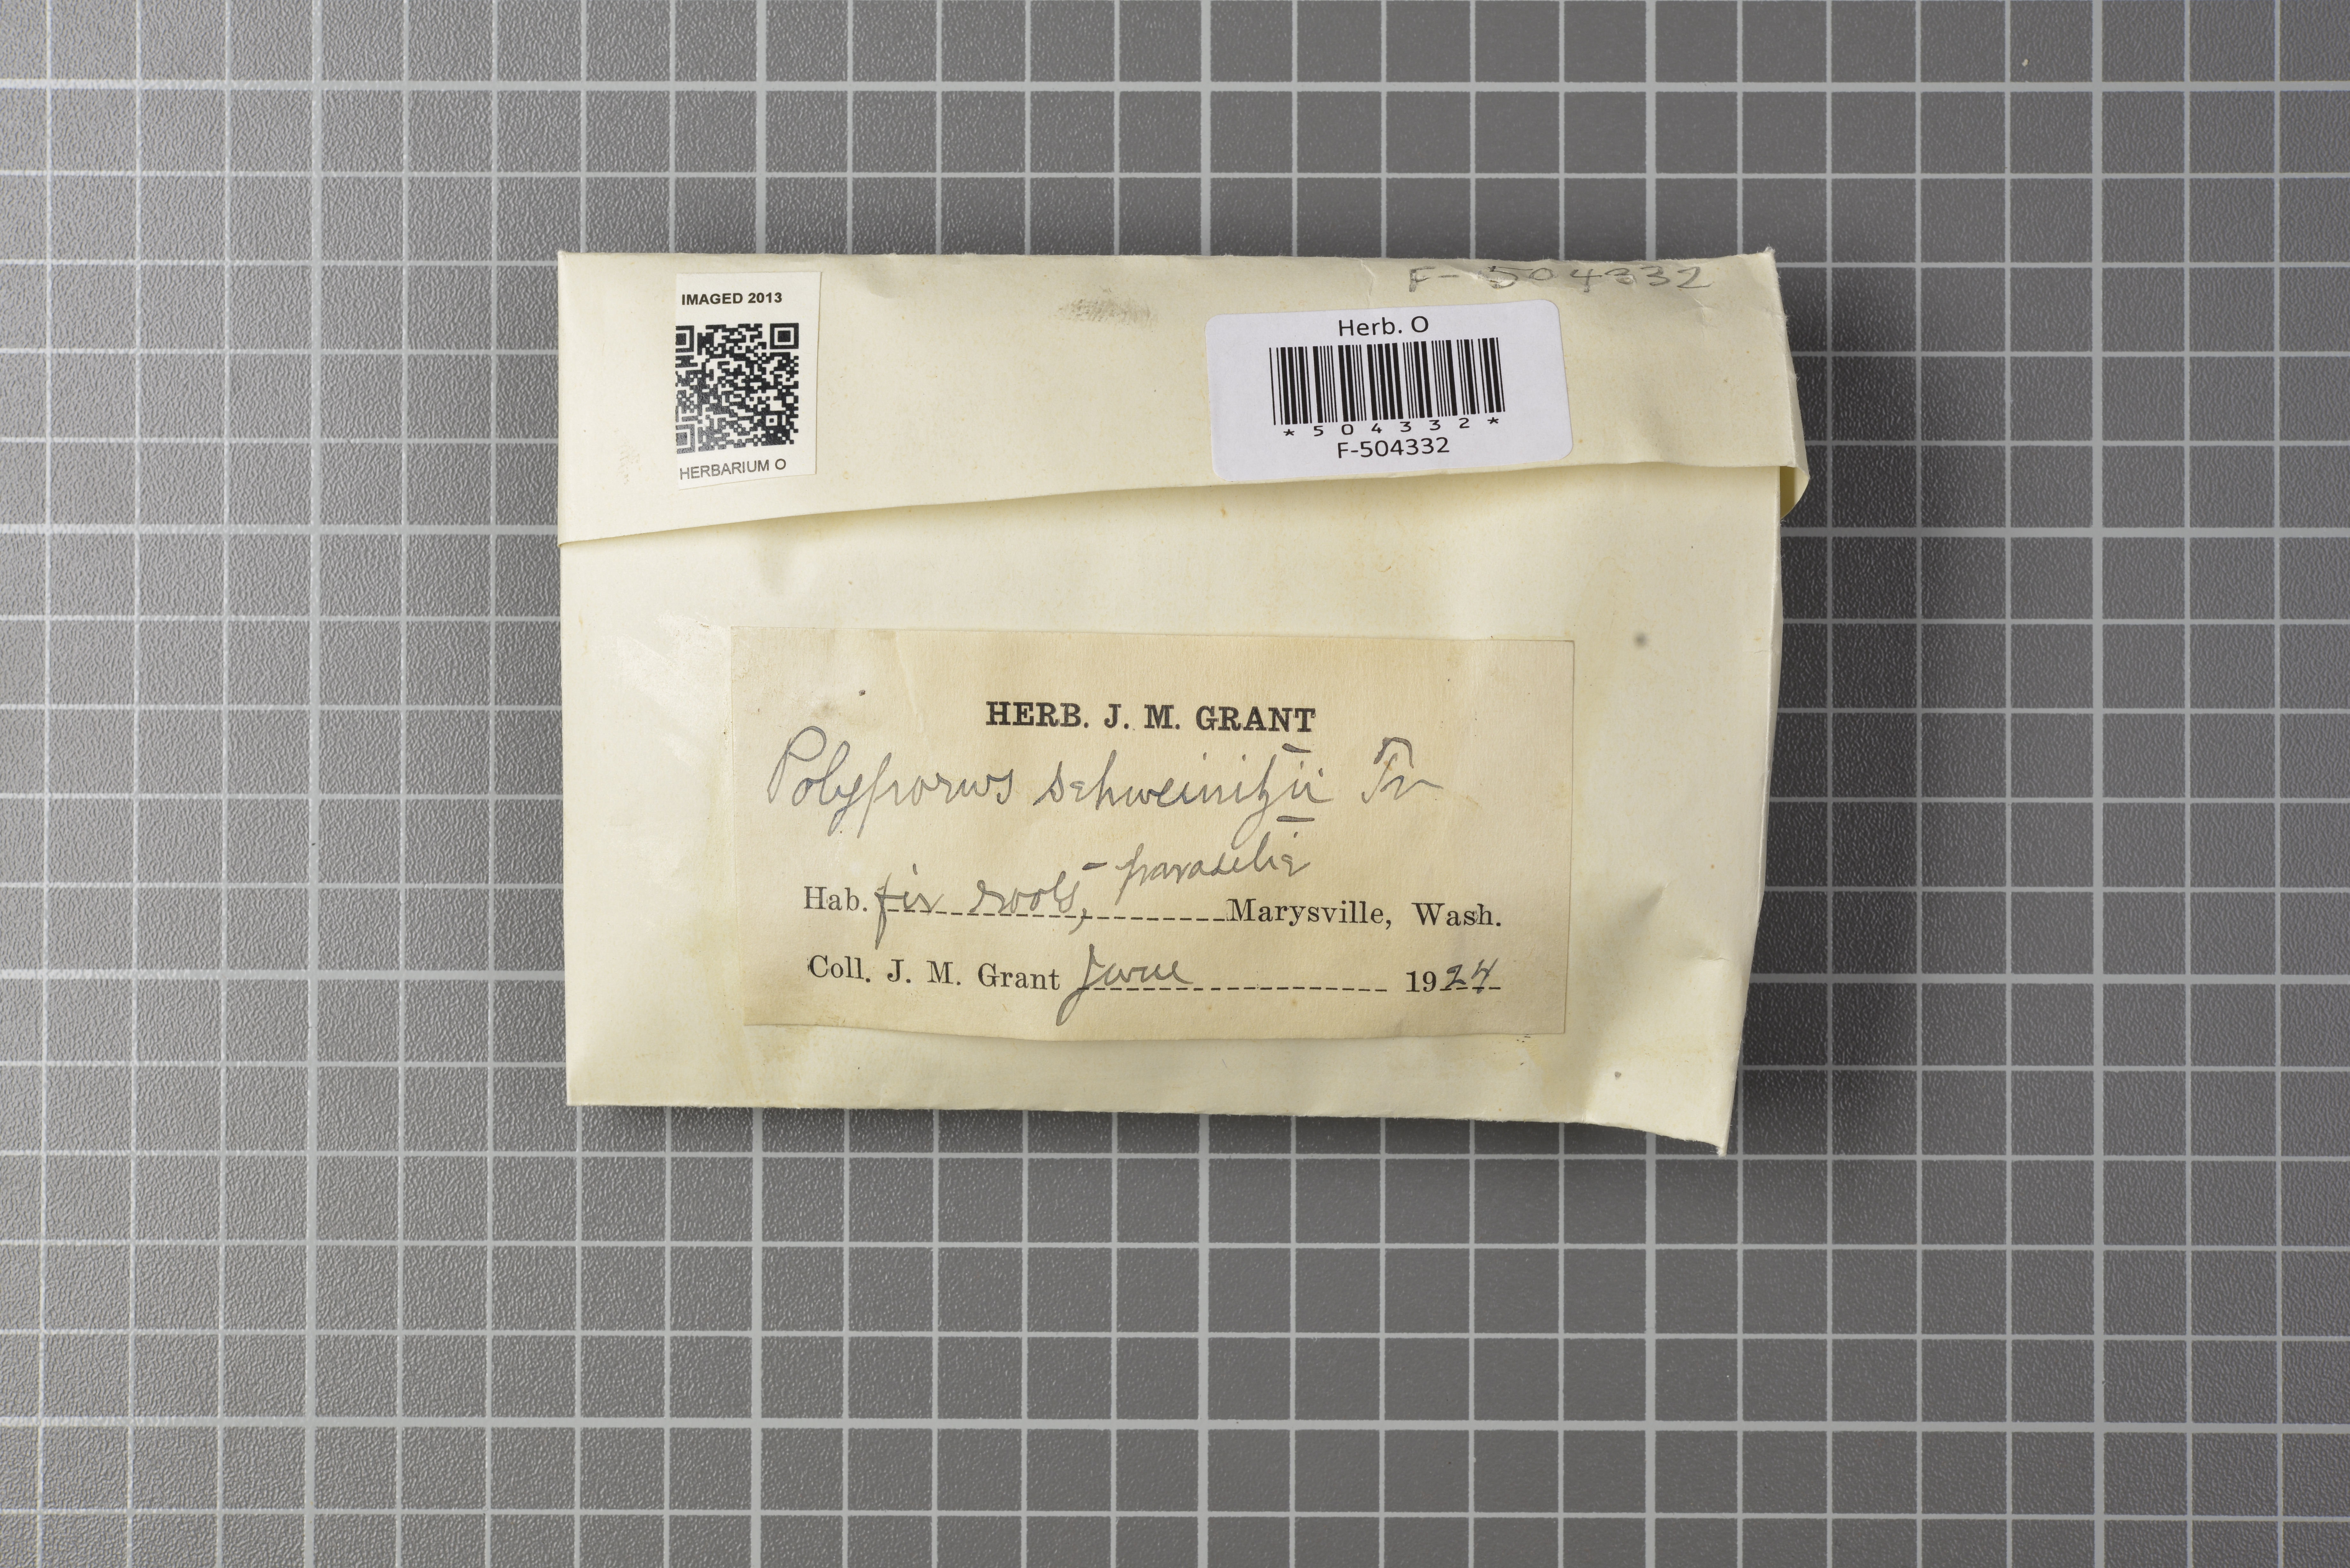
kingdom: Fungi
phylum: Basidiomycota
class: Agaricomycetes
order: Polyporales
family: Laetiporaceae
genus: Phaeolus
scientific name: Phaeolus schweinitzii
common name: Dyer's mazegill
